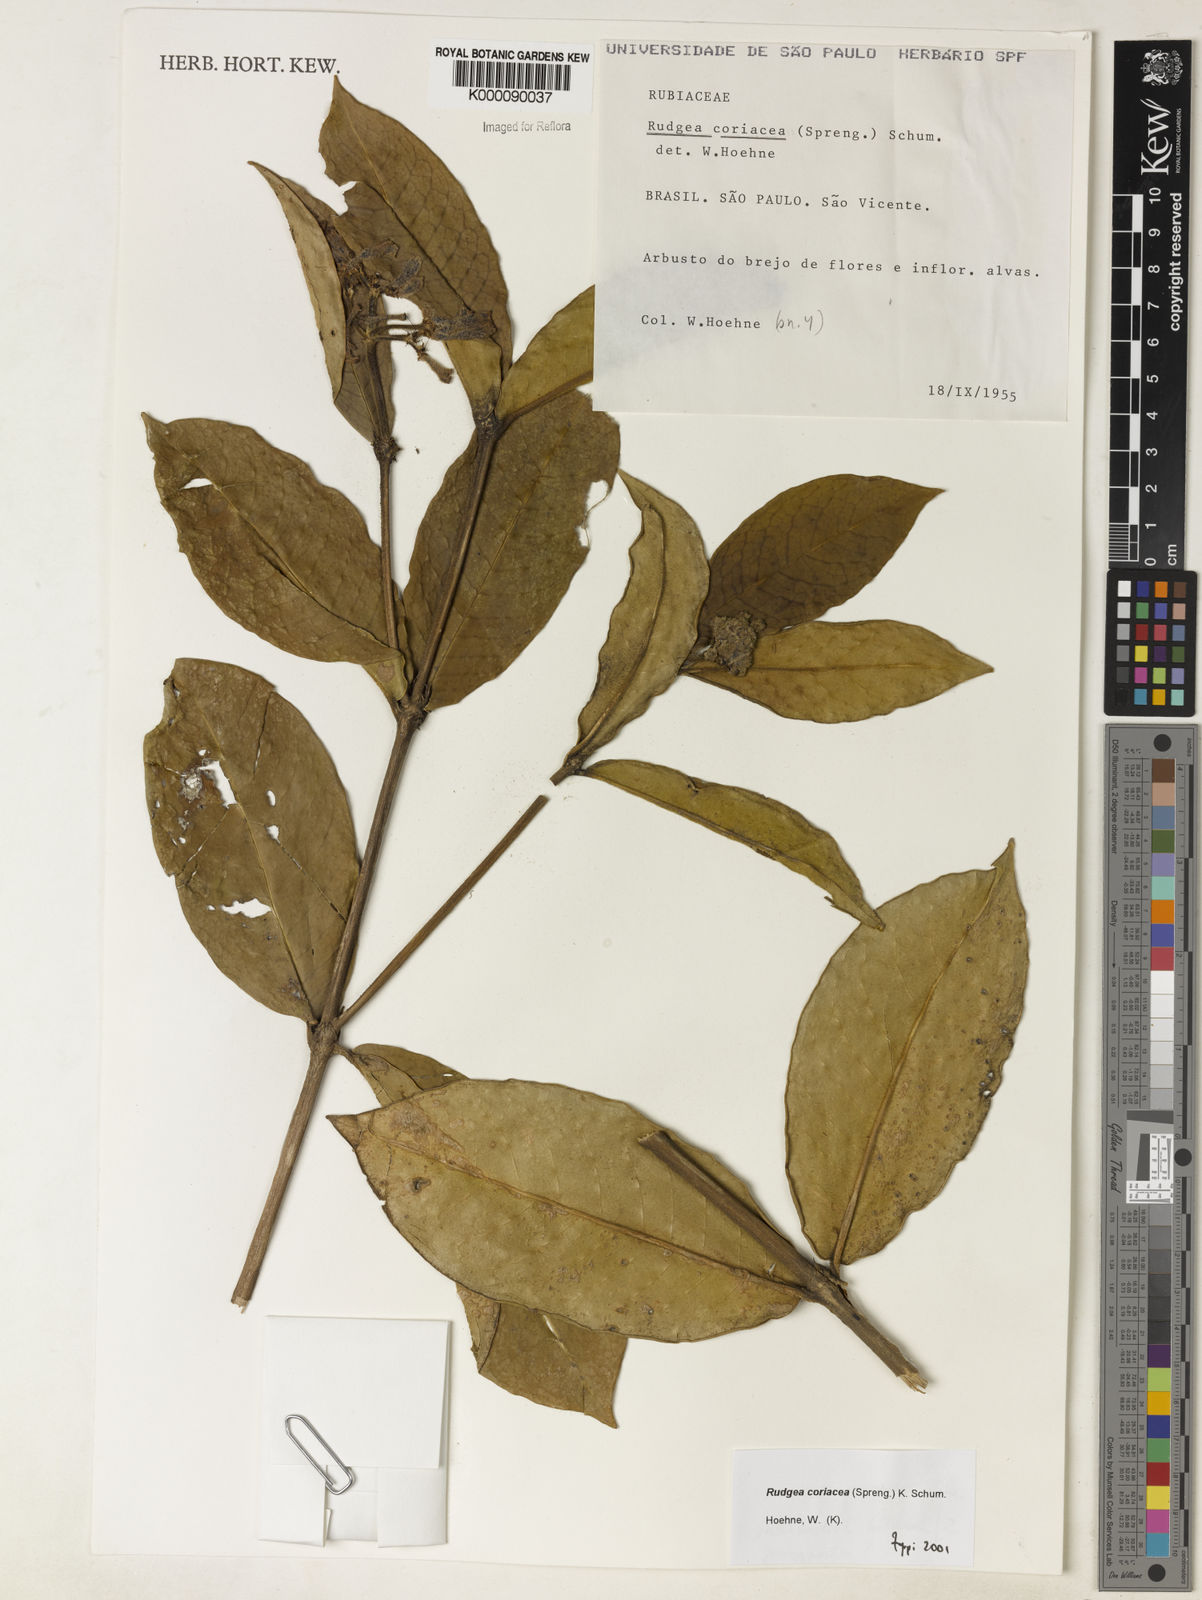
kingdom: Plantae
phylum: Tracheophyta
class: Magnoliopsida
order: Gentianales
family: Rubiaceae
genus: Rudgea
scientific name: Rudgea coriacea
